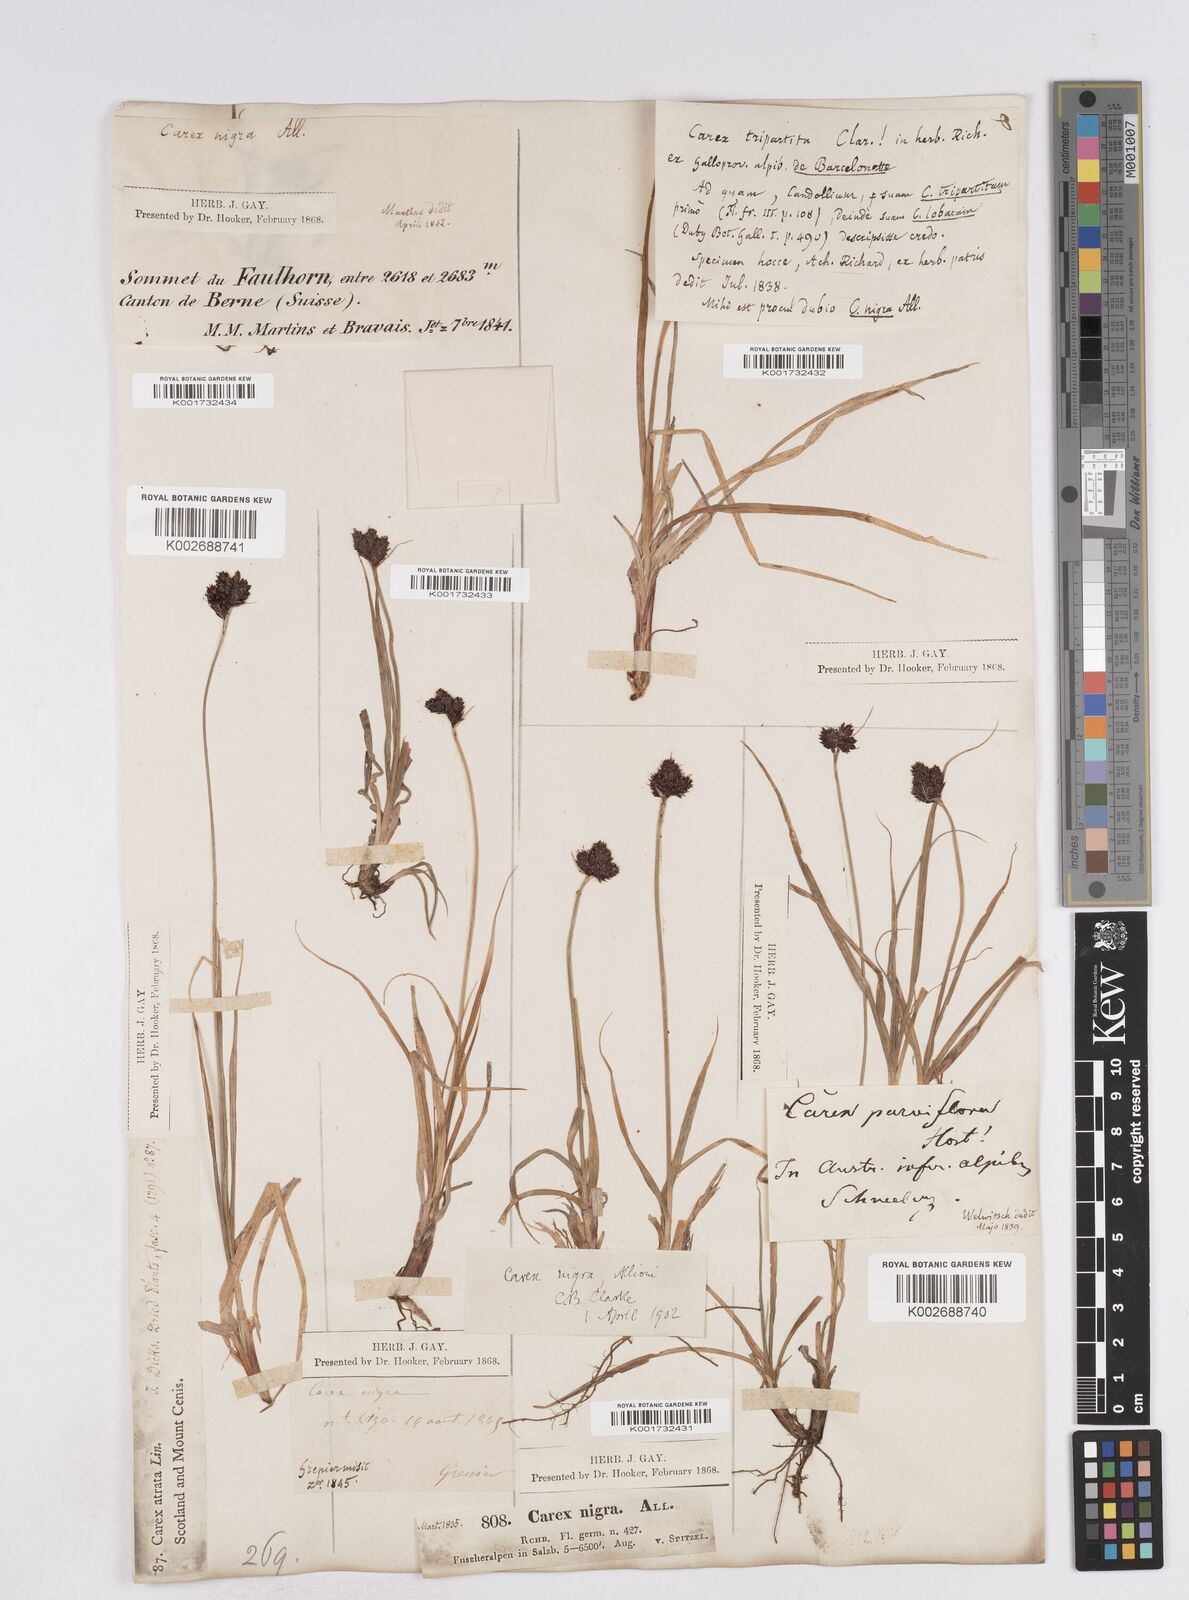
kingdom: Plantae
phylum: Tracheophyta
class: Liliopsida
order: Poales
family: Cyperaceae
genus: Carex
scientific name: Carex parviflora
